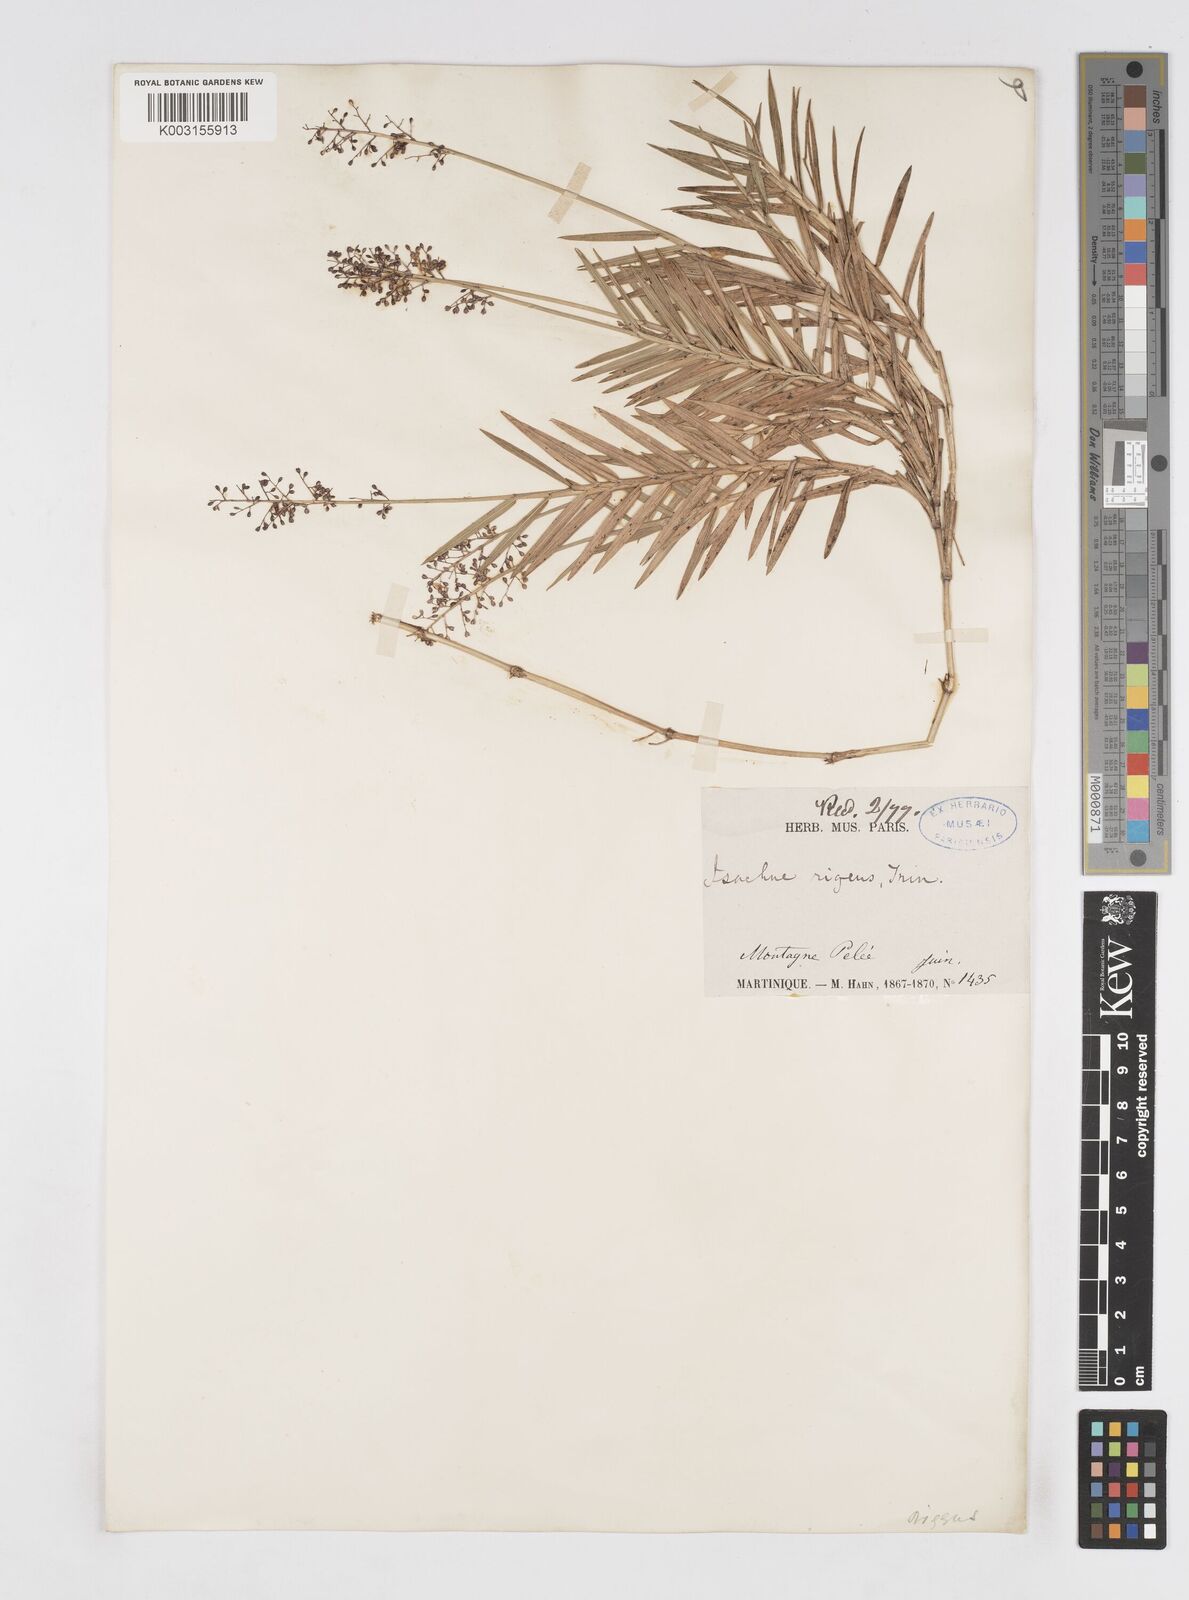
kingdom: Plantae
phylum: Tracheophyta
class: Liliopsida
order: Poales
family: Poaceae
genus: Isachne
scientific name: Isachne rigidifolia
